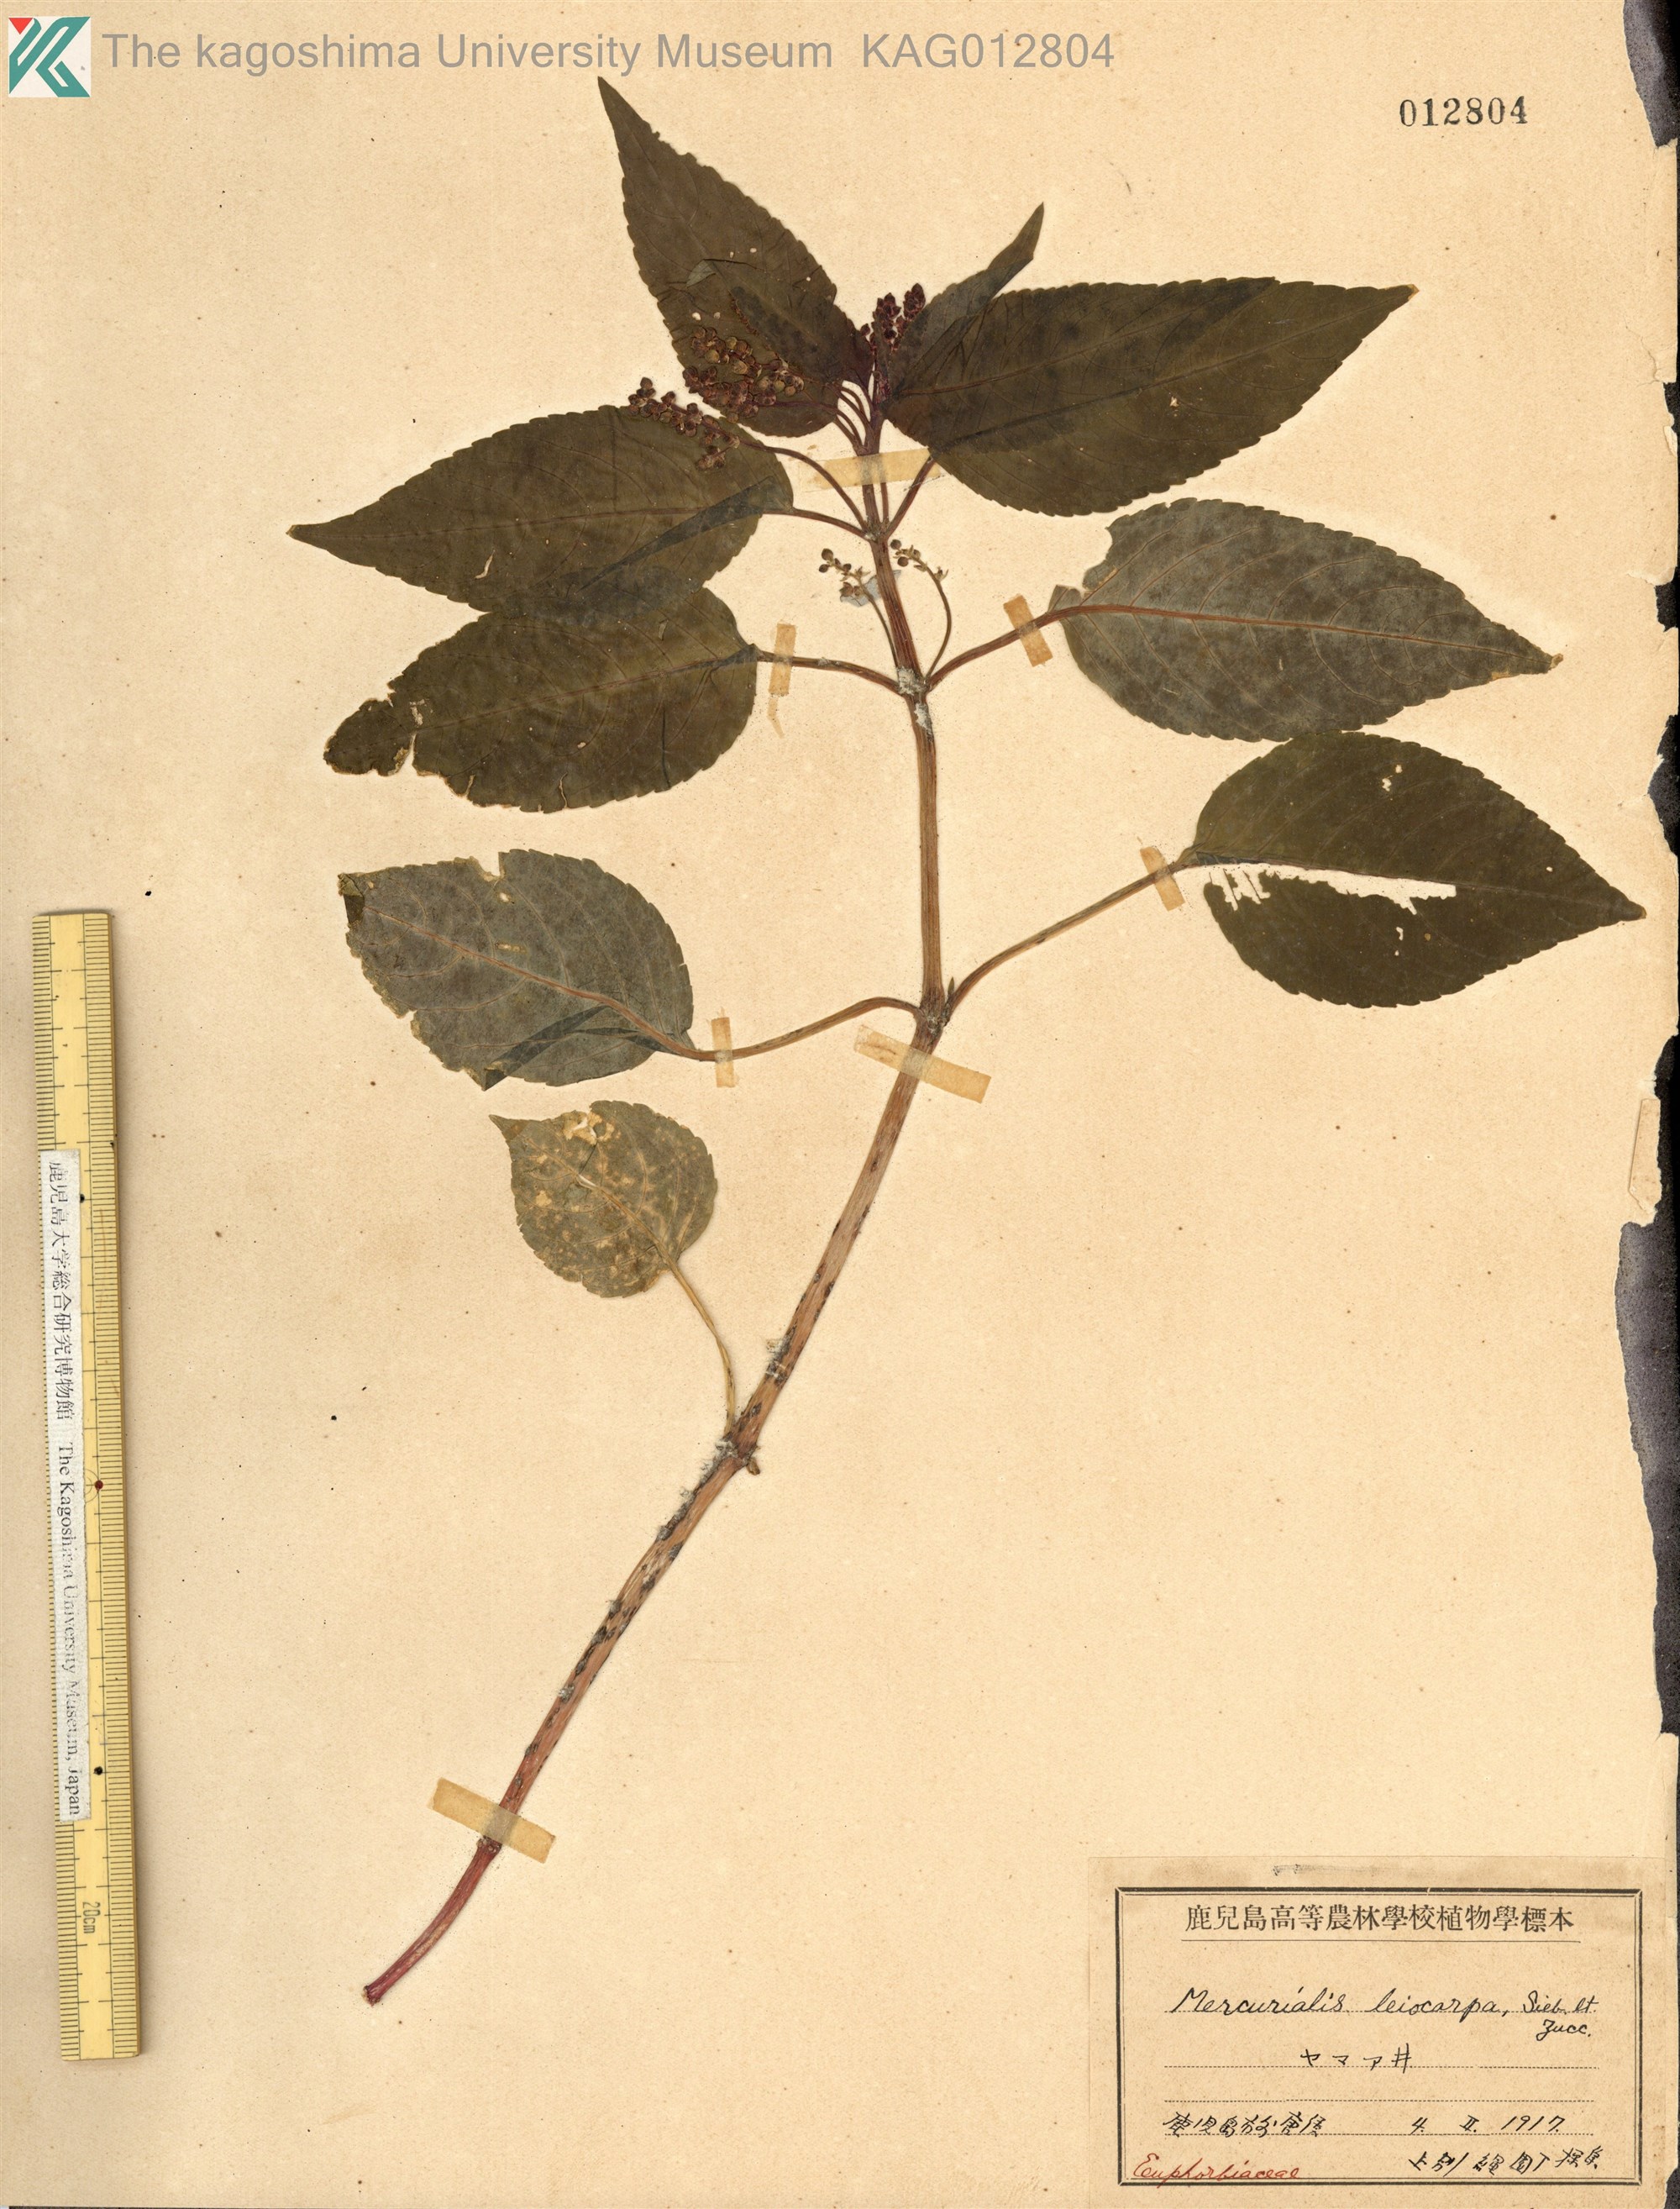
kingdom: Plantae
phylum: Tracheophyta
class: Magnoliopsida
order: Malpighiales
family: Euphorbiaceae
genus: Mercurialis
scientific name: Mercurialis leiocarpa
